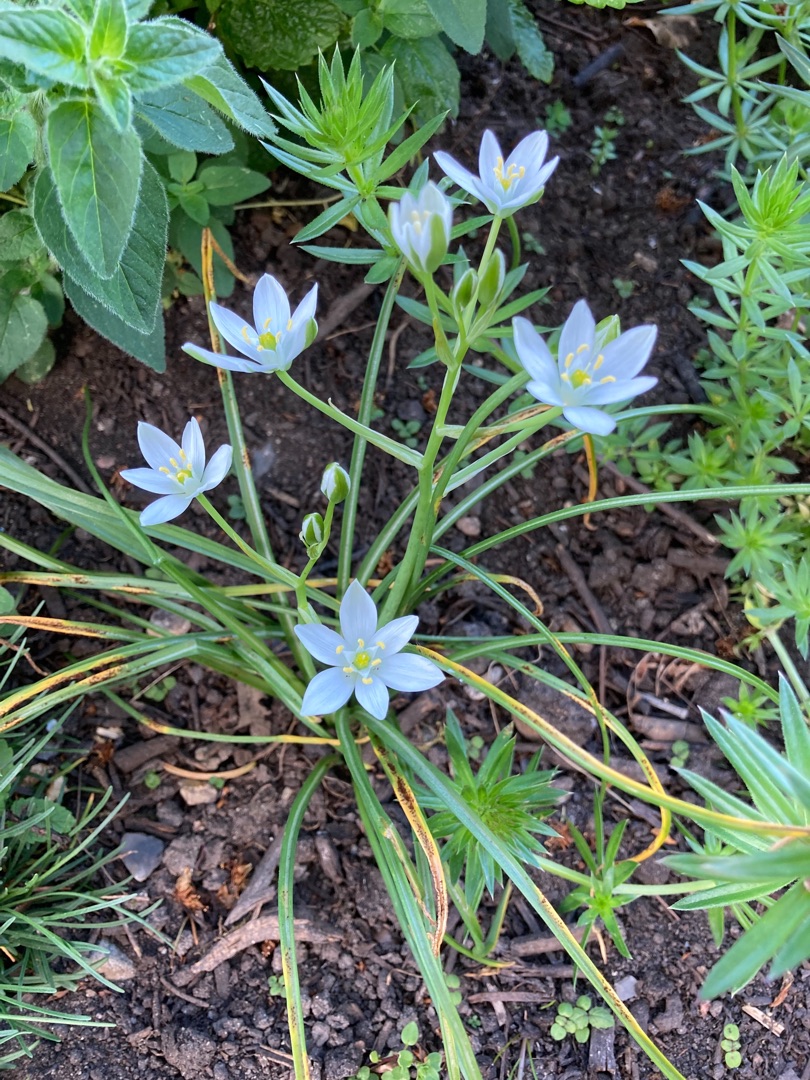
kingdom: Plantae
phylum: Tracheophyta
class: Liliopsida
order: Asparagales
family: Asparagaceae
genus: Ornithogalum
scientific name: Ornithogalum divergens
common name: Udspærret fuglemælk
